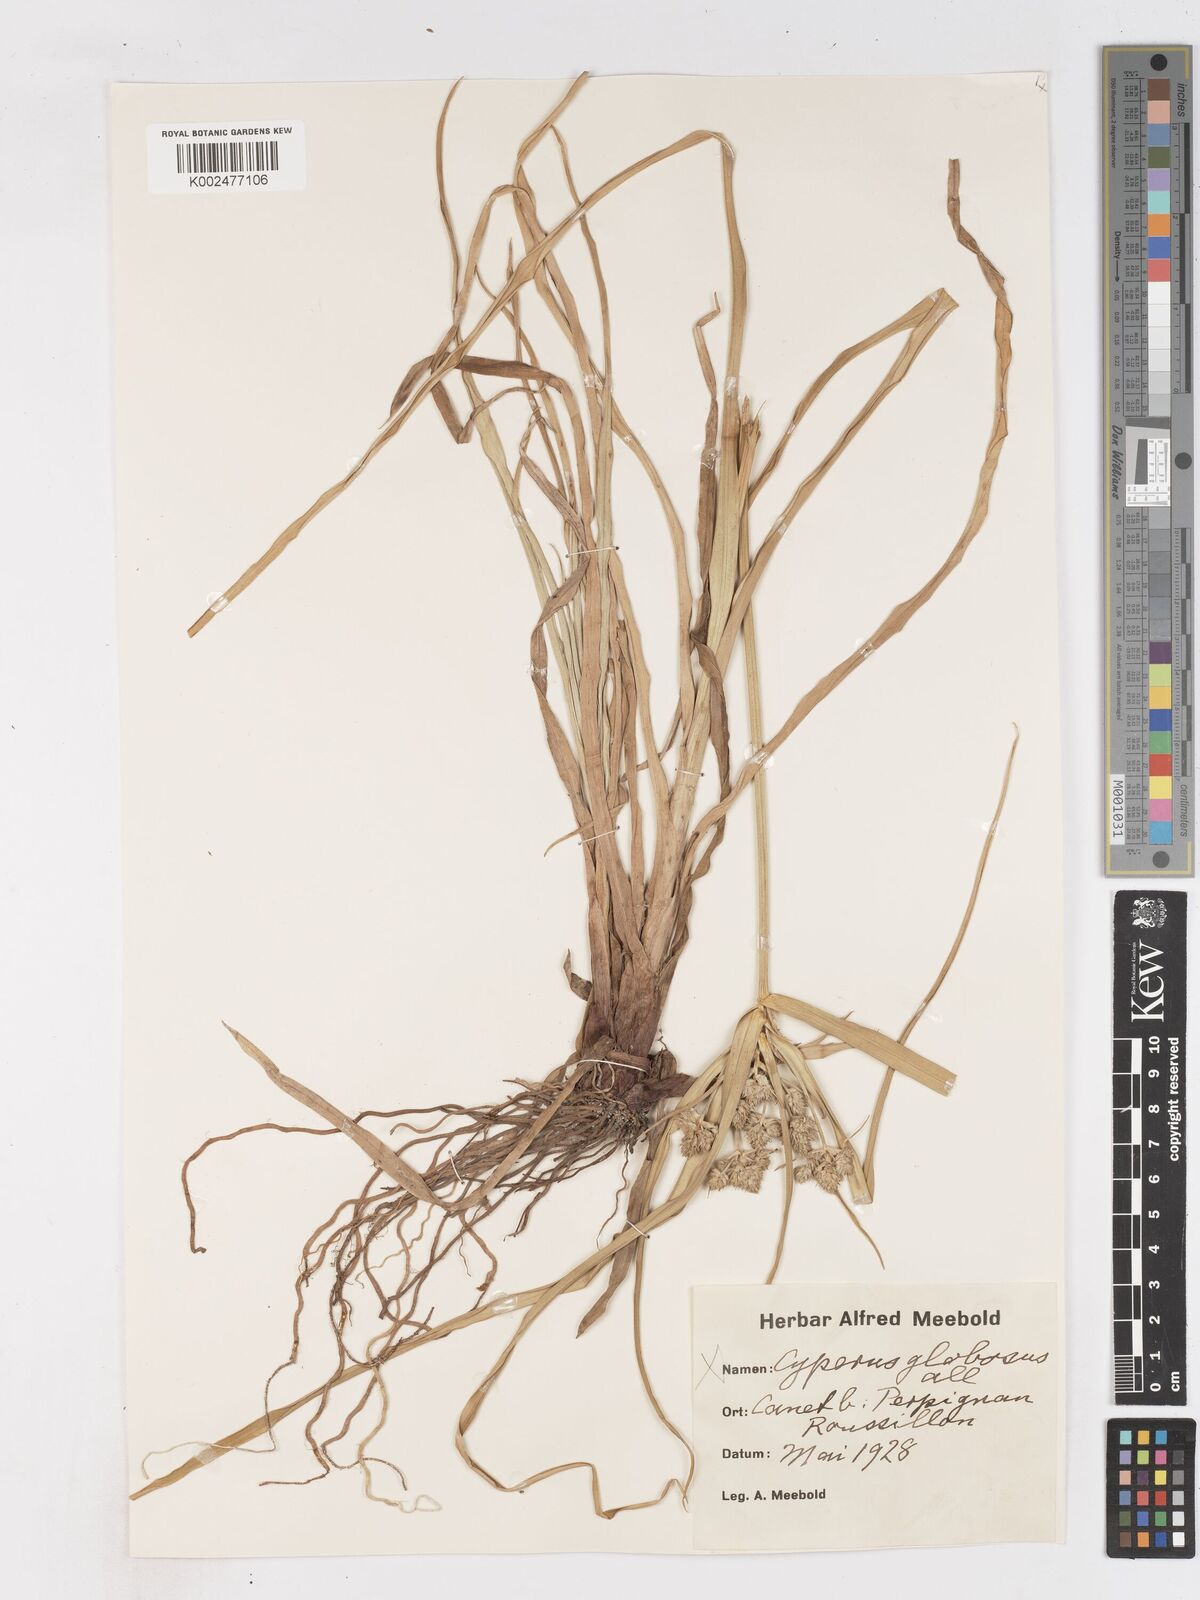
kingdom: Plantae
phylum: Tracheophyta
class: Liliopsida
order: Poales
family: Cyperaceae
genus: Cyperus
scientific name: Cyperus eragrostis
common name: Tall flatsedge
